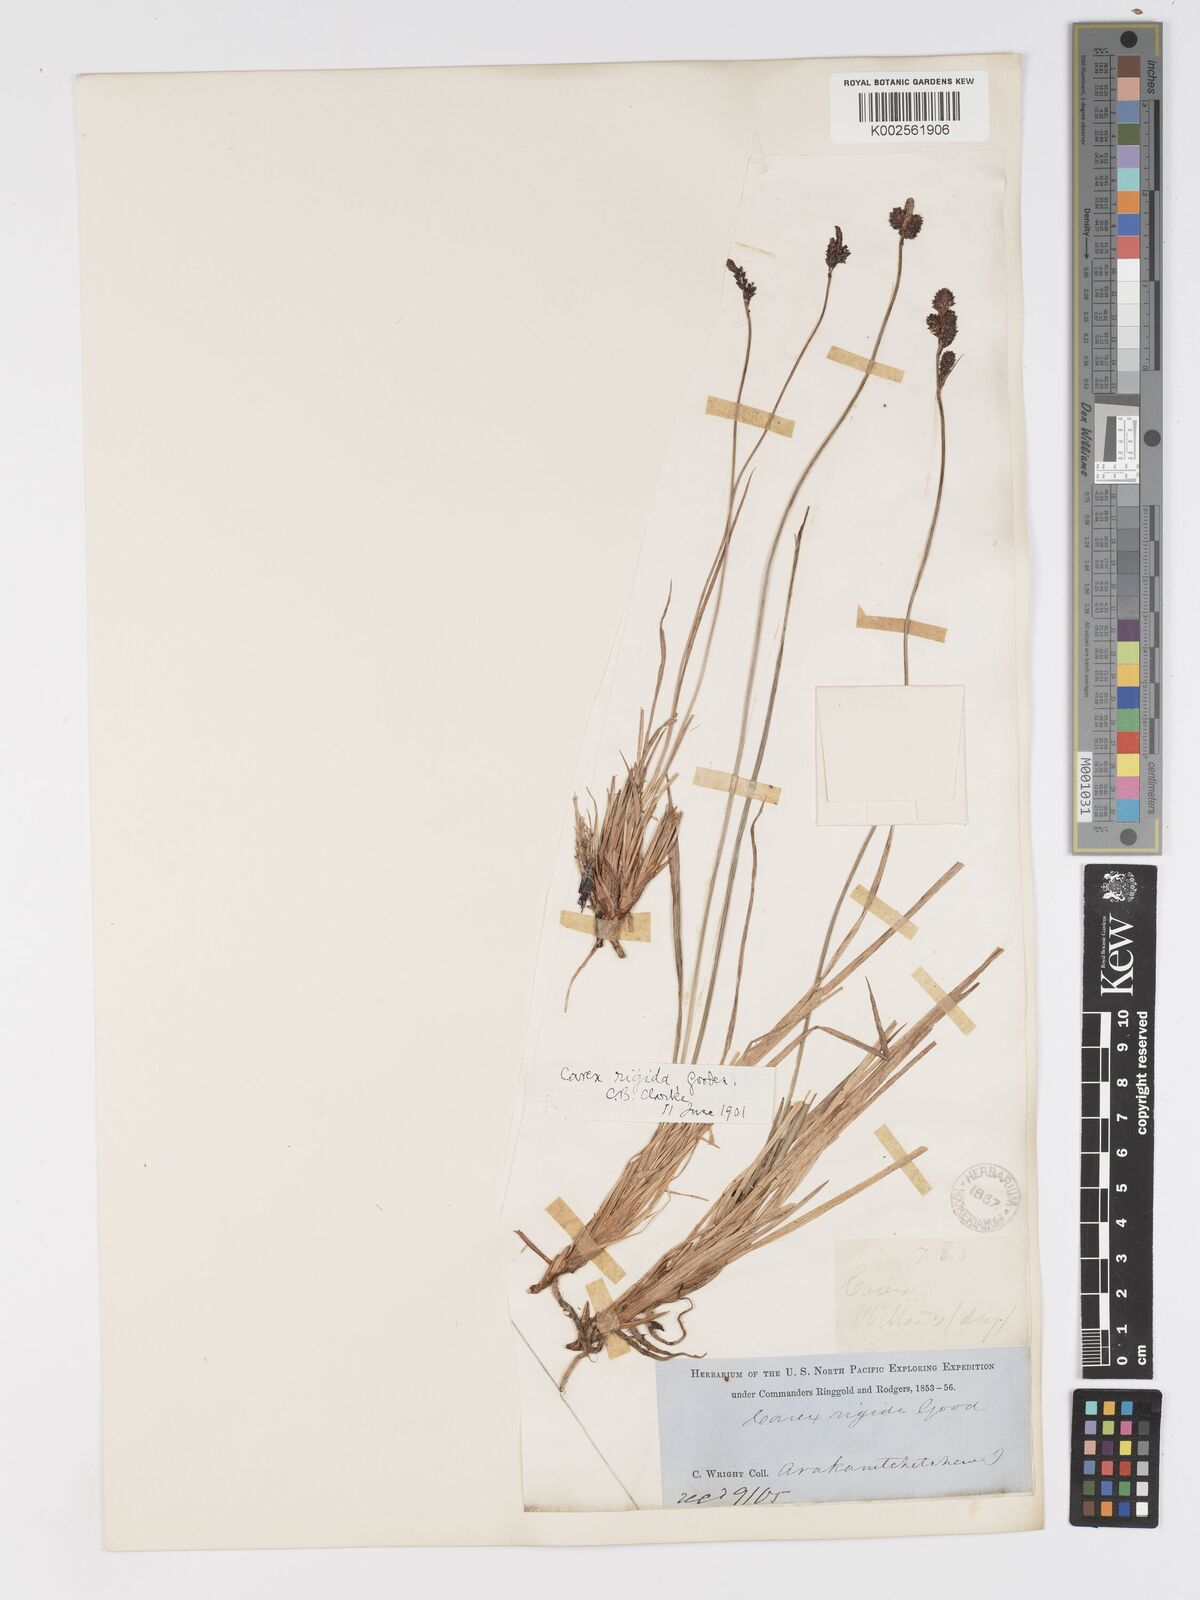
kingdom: Plantae
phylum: Tracheophyta
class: Liliopsida
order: Poales
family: Cyperaceae
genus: Carex
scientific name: Carex bigelowii
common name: Stiff sedge
